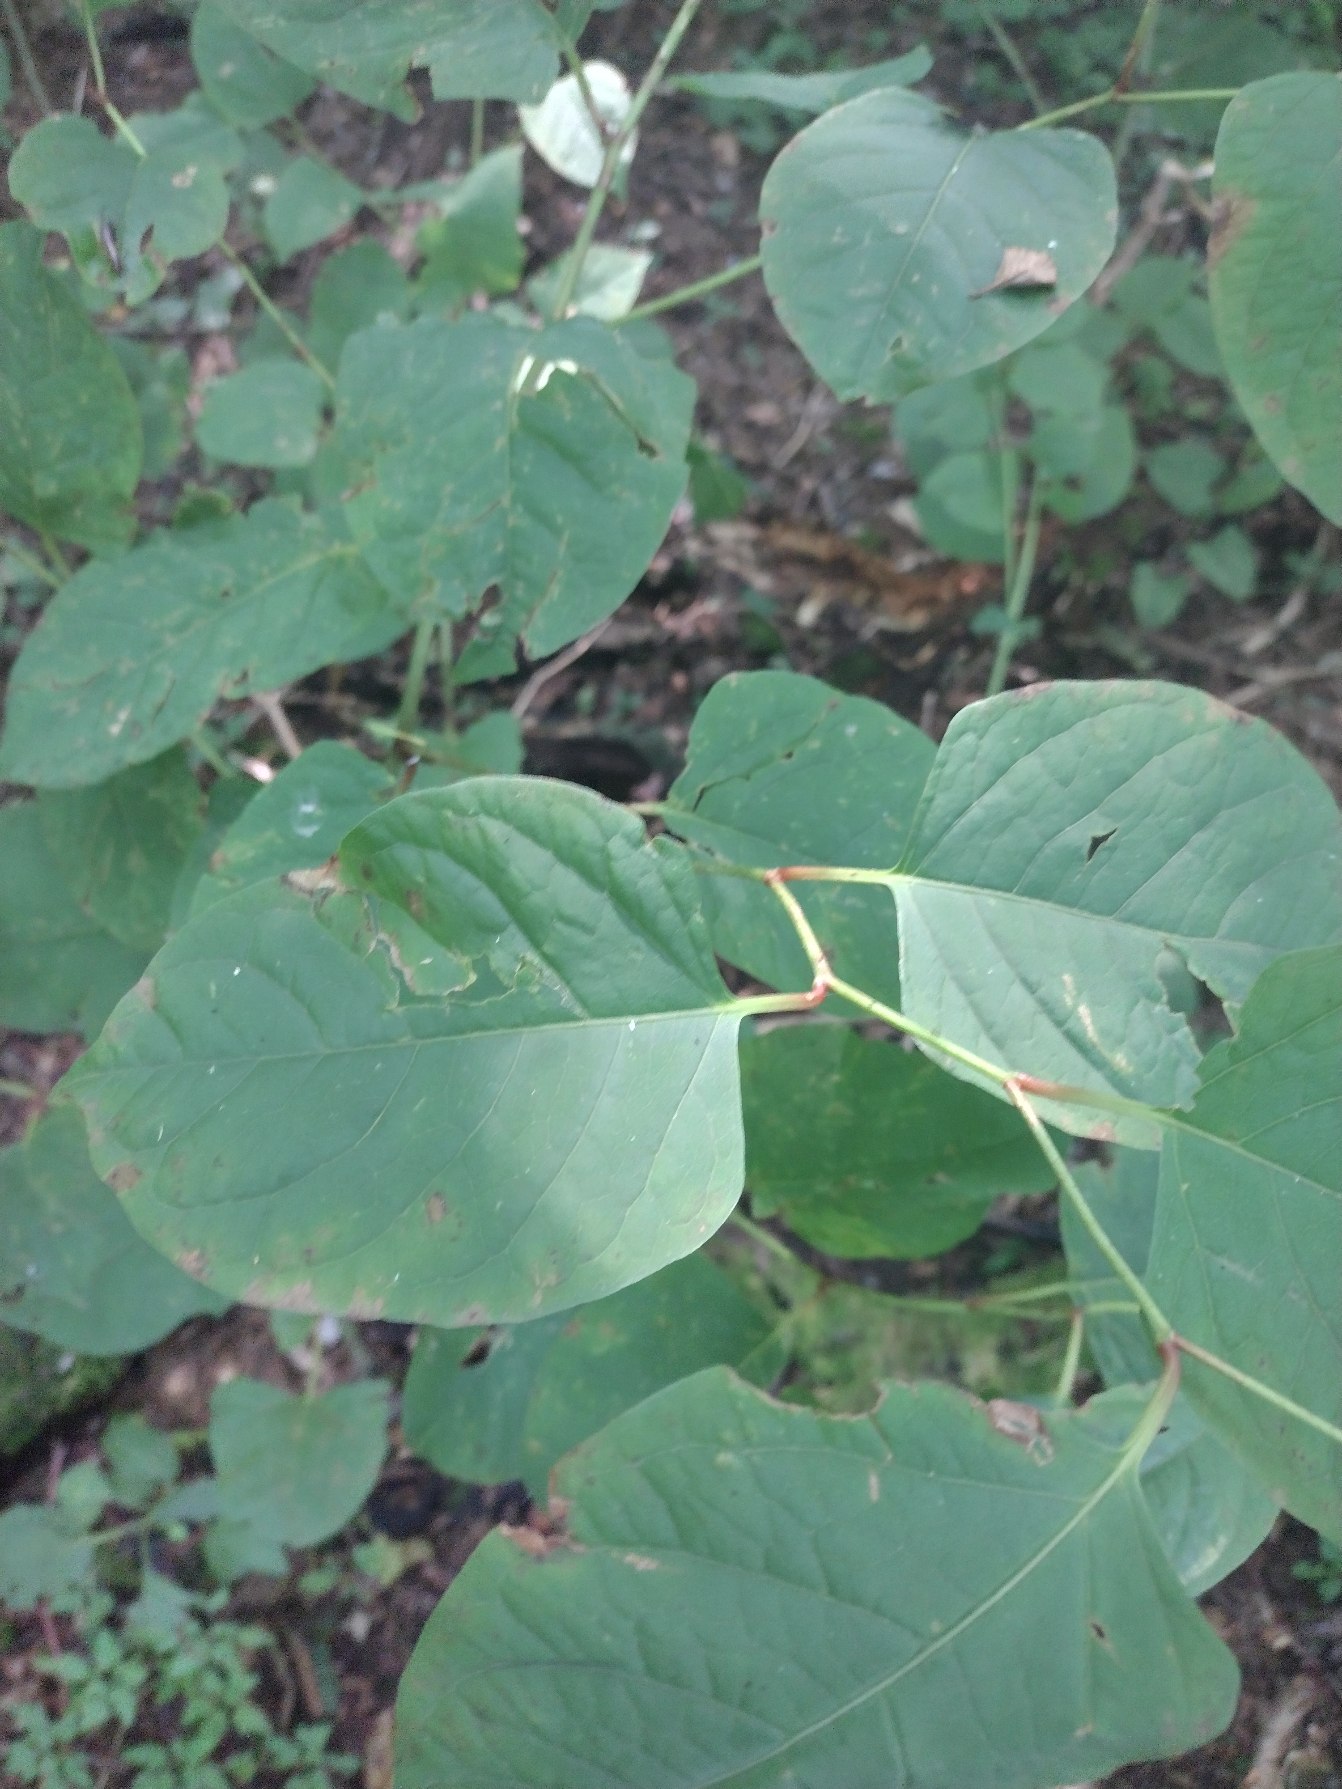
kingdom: Plantae
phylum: Tracheophyta
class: Magnoliopsida
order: Caryophyllales
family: Polygonaceae
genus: Reynoutria
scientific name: Reynoutria japonica
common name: Japan-pileurt
